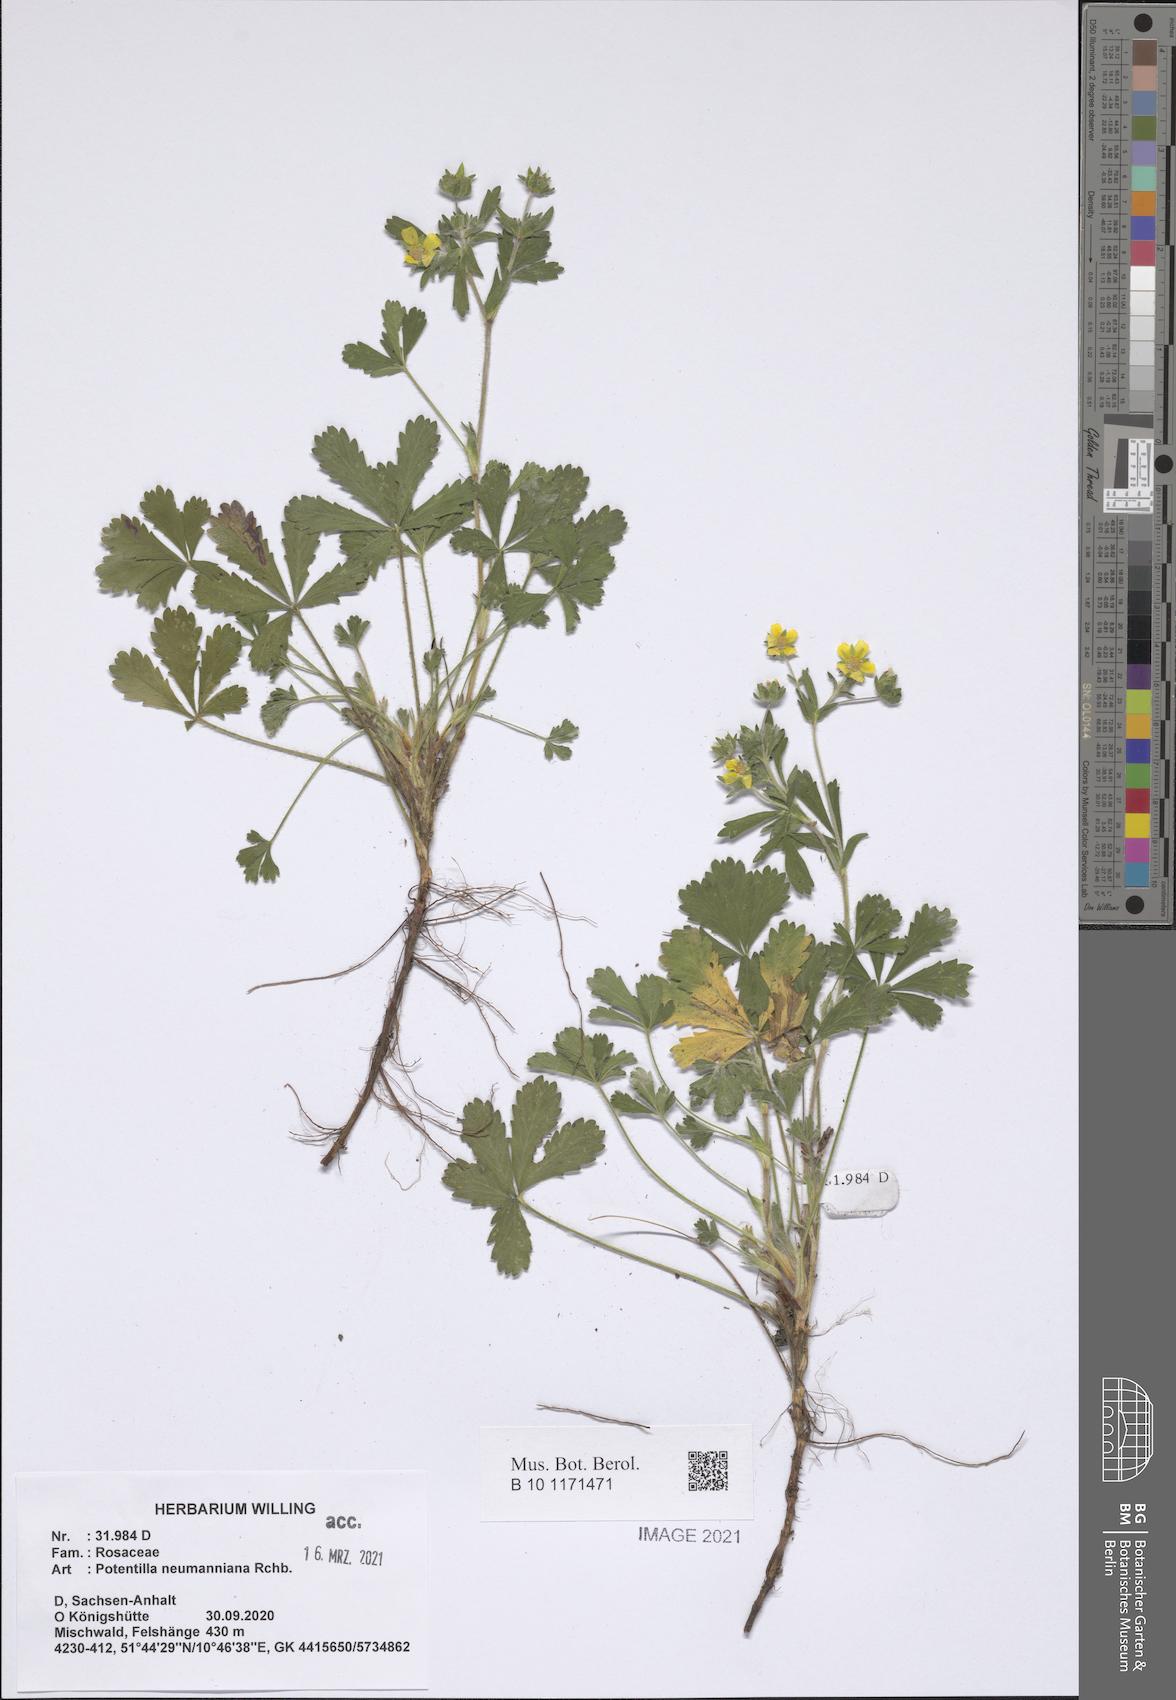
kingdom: Plantae
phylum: Tracheophyta
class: Magnoliopsida
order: Rosales
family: Rosaceae
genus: Potentilla
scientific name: Potentilla verna
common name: Spring cinquefoil
